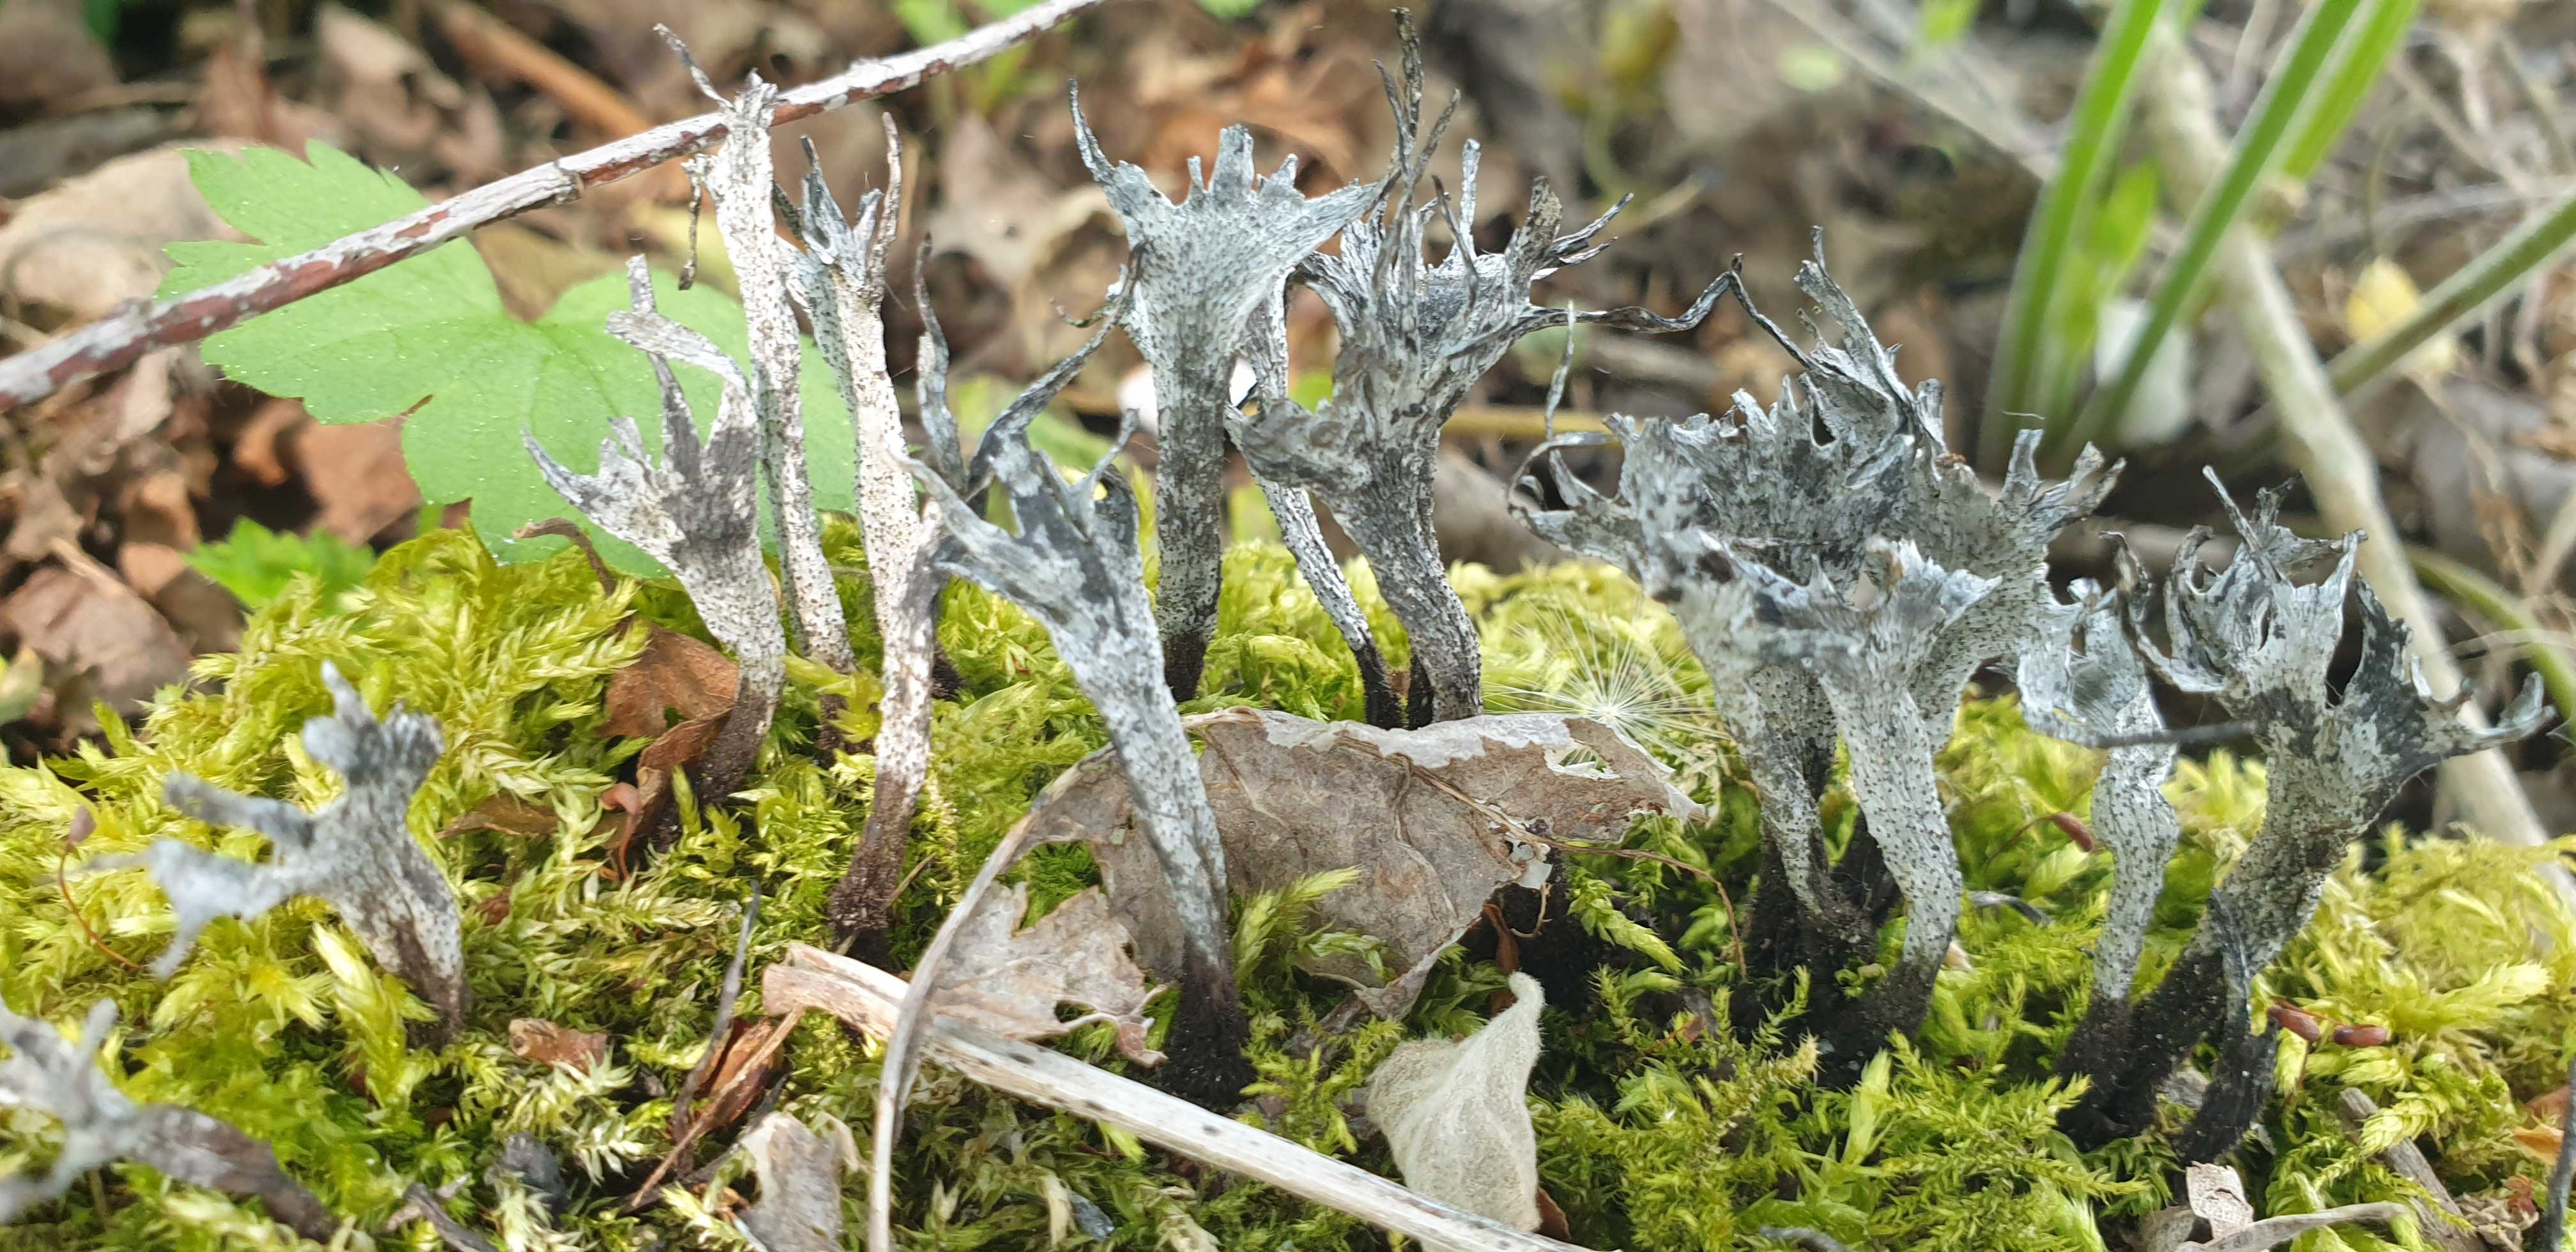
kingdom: Fungi
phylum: Ascomycota
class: Sordariomycetes
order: Xylariales
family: Xylariaceae
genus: Xylaria
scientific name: Xylaria hypoxylon
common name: grenet stødsvamp
